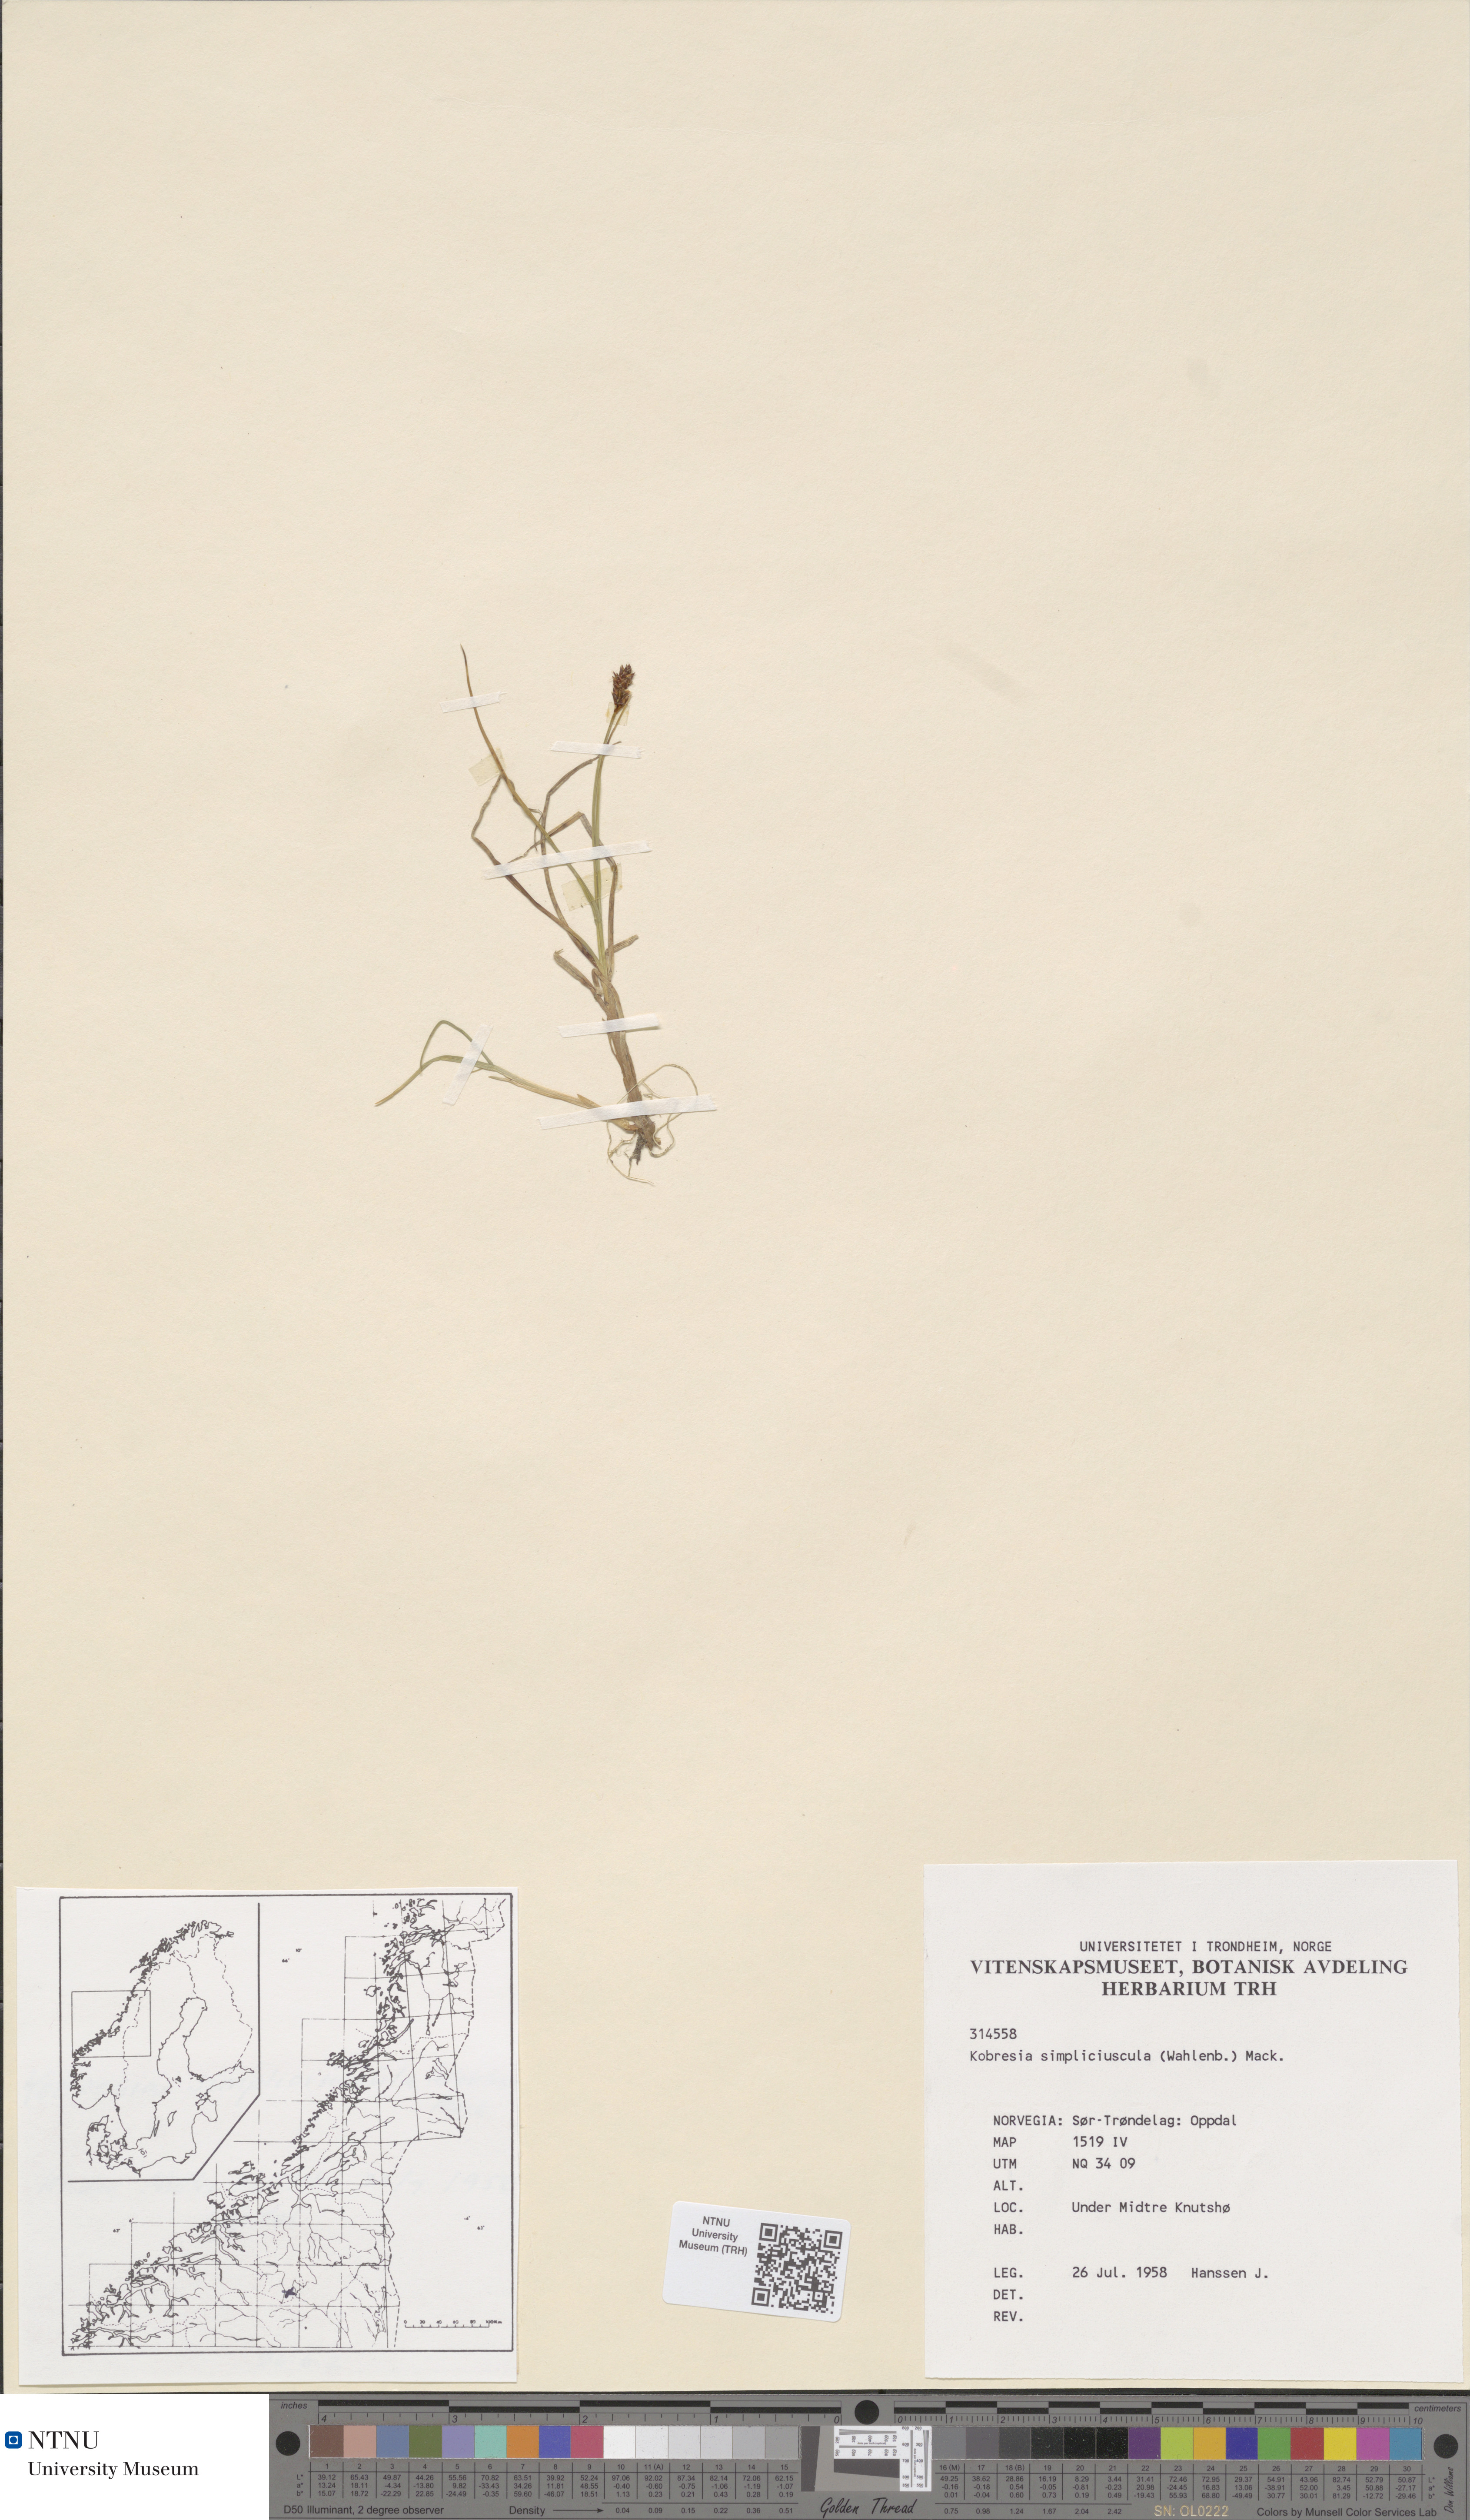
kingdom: Plantae
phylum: Tracheophyta
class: Liliopsida
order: Poales
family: Cyperaceae
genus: Carex
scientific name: Carex simpliciuscula
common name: Simple bog sedge
